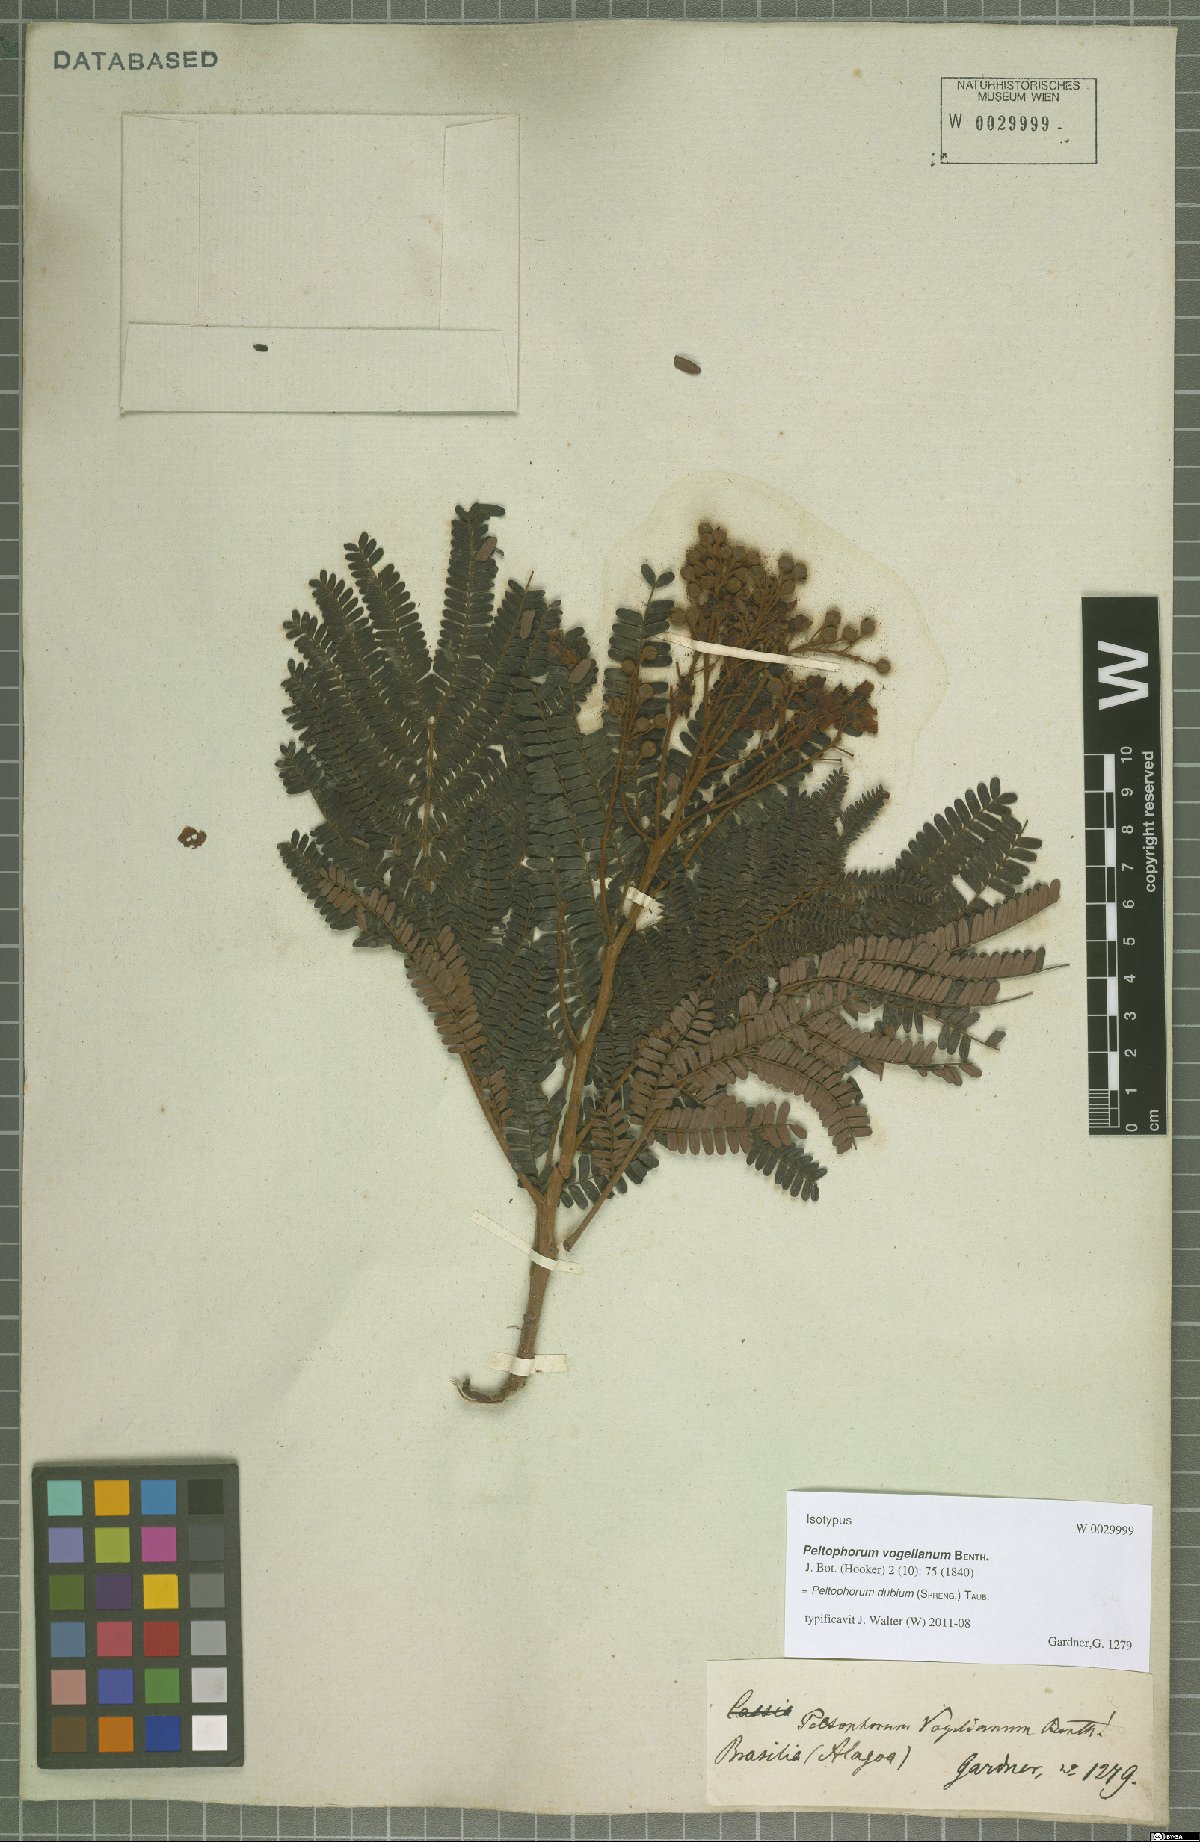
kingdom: Plantae
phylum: Tracheophyta
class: Magnoliopsida
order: Fabales
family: Fabaceae
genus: Peltophorum
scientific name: Peltophorum dubium
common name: Horsebush
